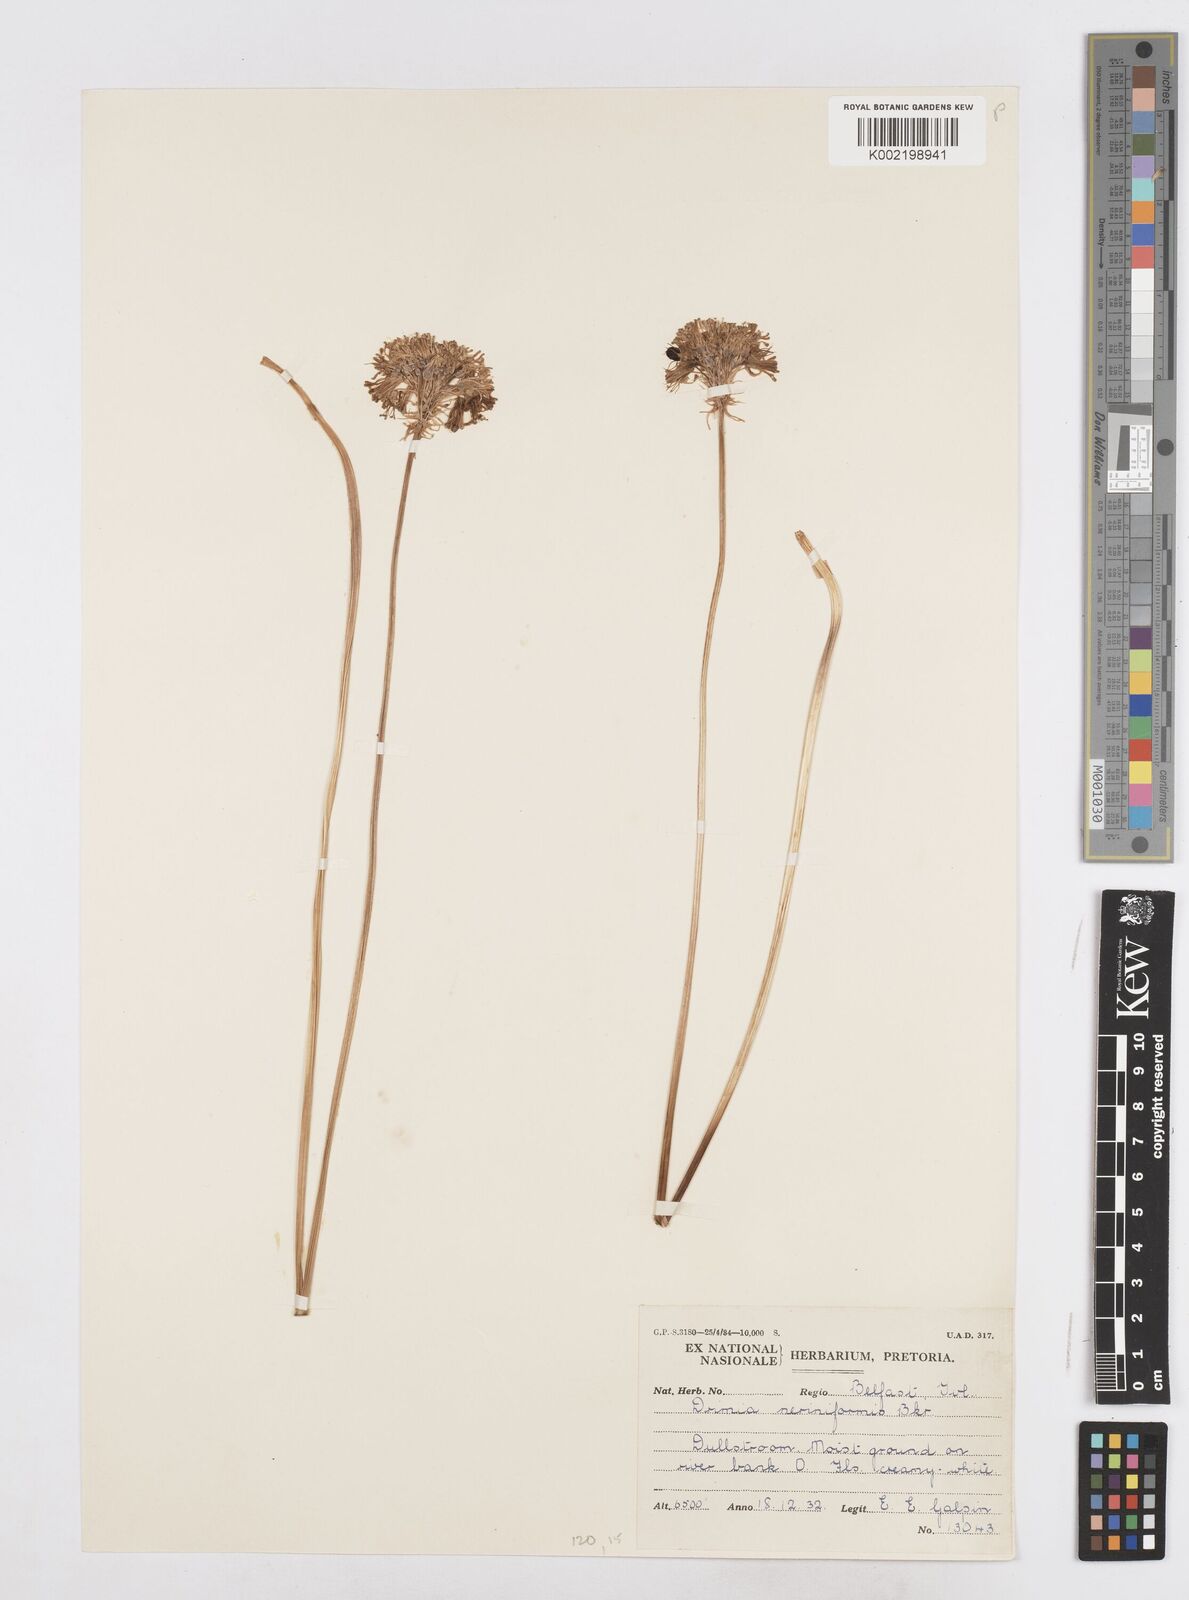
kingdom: Plantae
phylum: Tracheophyta
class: Liliopsida
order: Asparagales
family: Asparagaceae
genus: Drimia
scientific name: Drimia sphaerocephala
